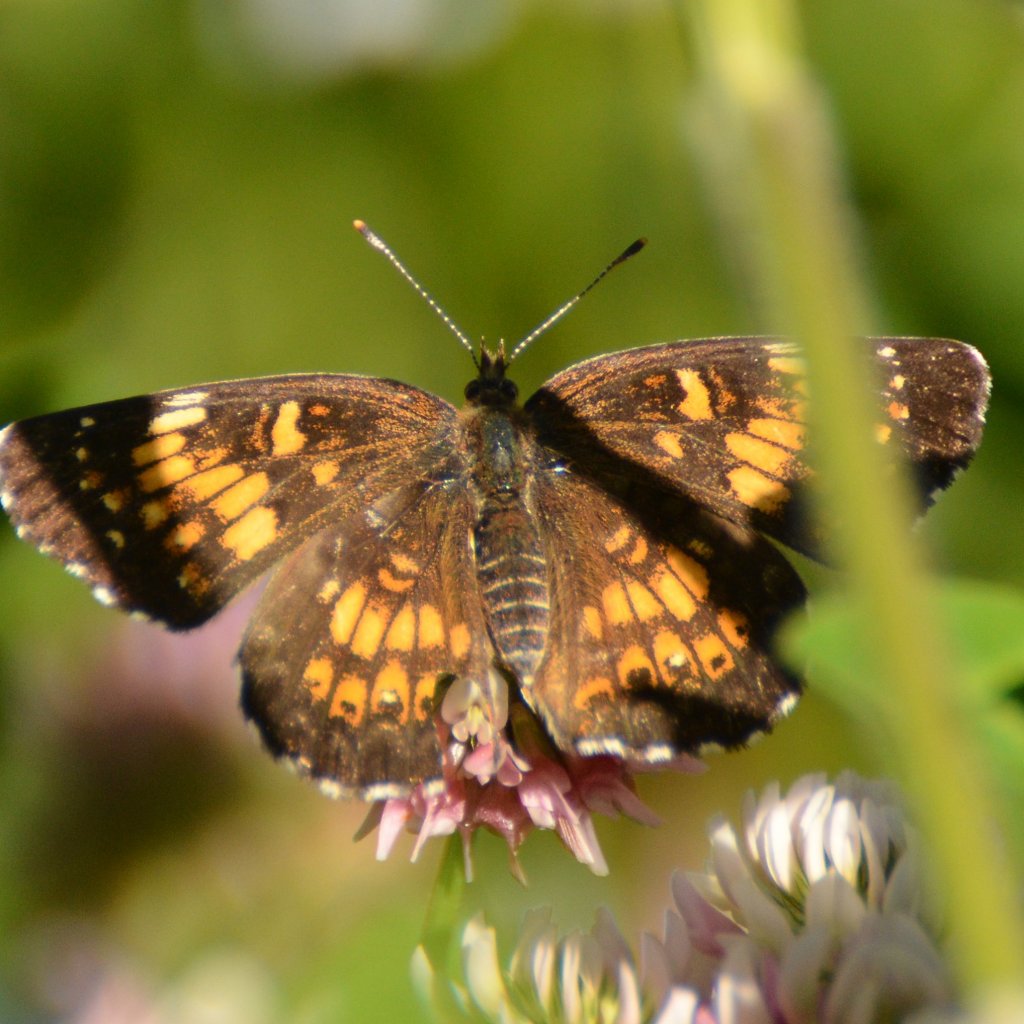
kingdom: Animalia
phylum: Arthropoda
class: Insecta
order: Lepidoptera
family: Nymphalidae
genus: Chlosyne
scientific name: Chlosyne harrisii
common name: Harris's Checkerspot
